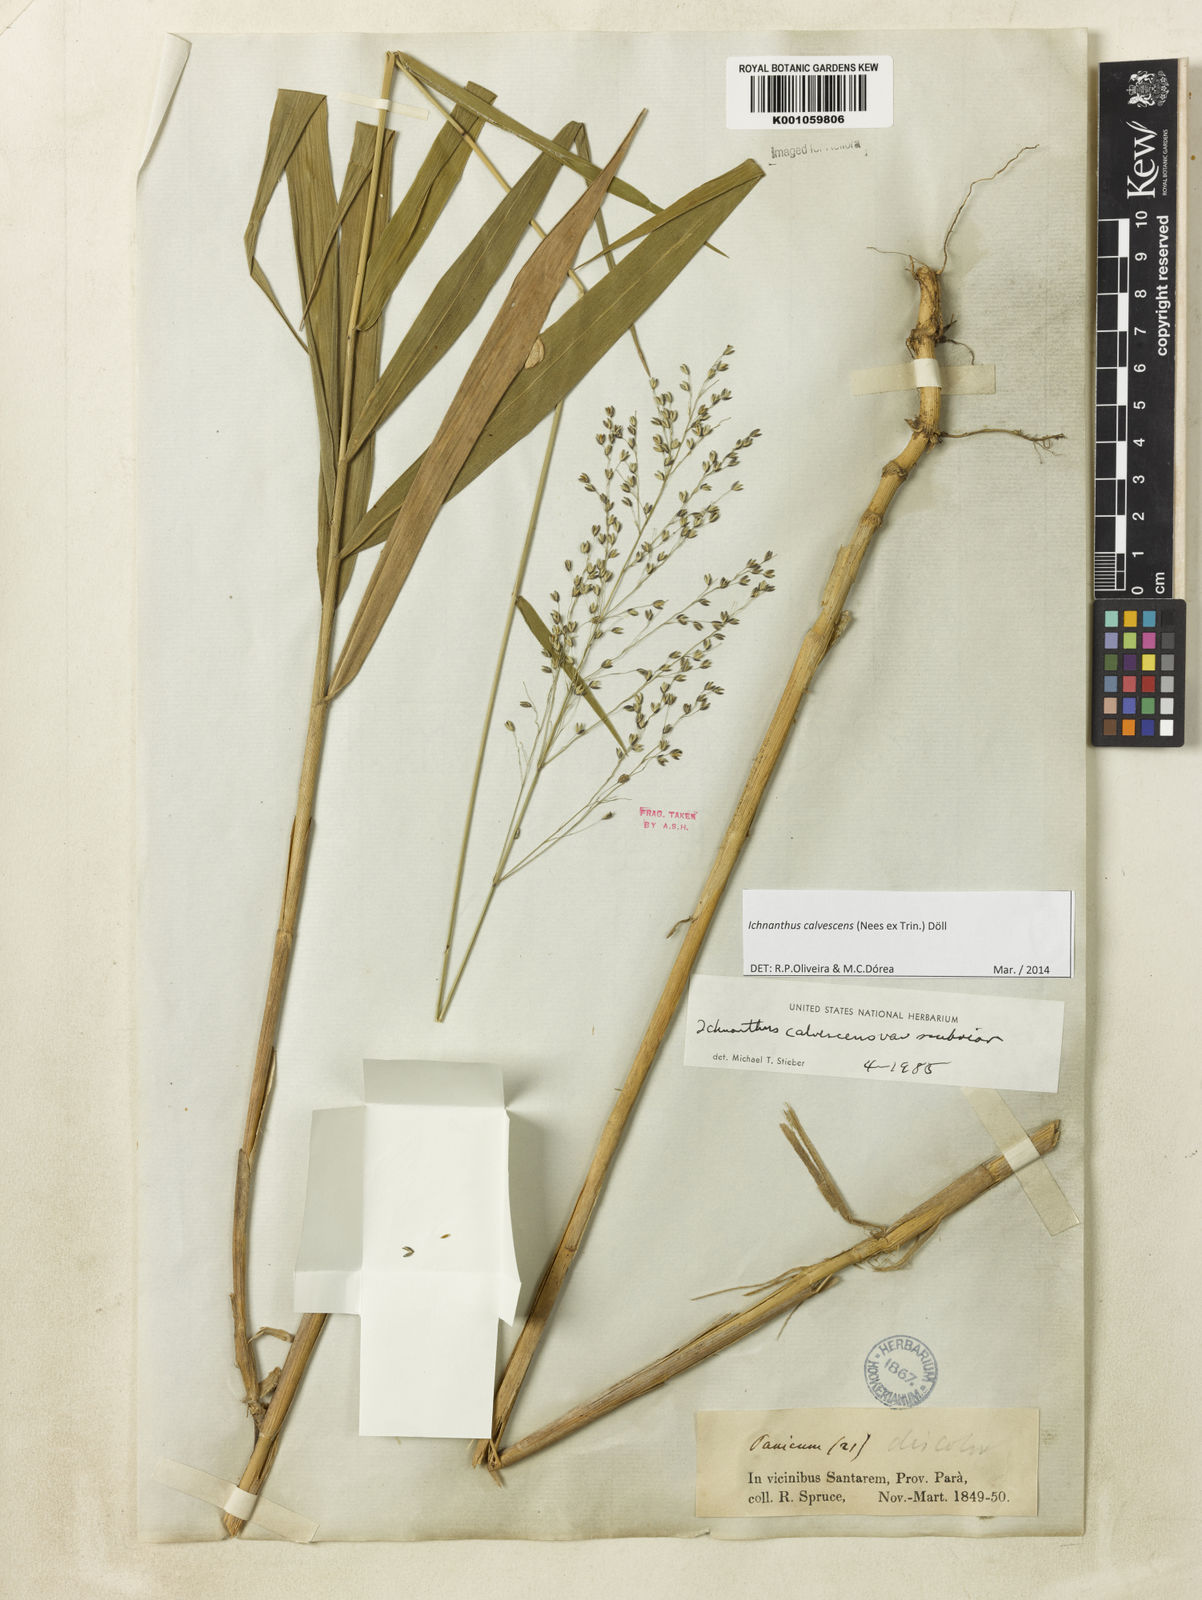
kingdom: Plantae
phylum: Tracheophyta
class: Liliopsida
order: Poales
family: Poaceae
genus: Ichnanthus
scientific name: Ichnanthus
